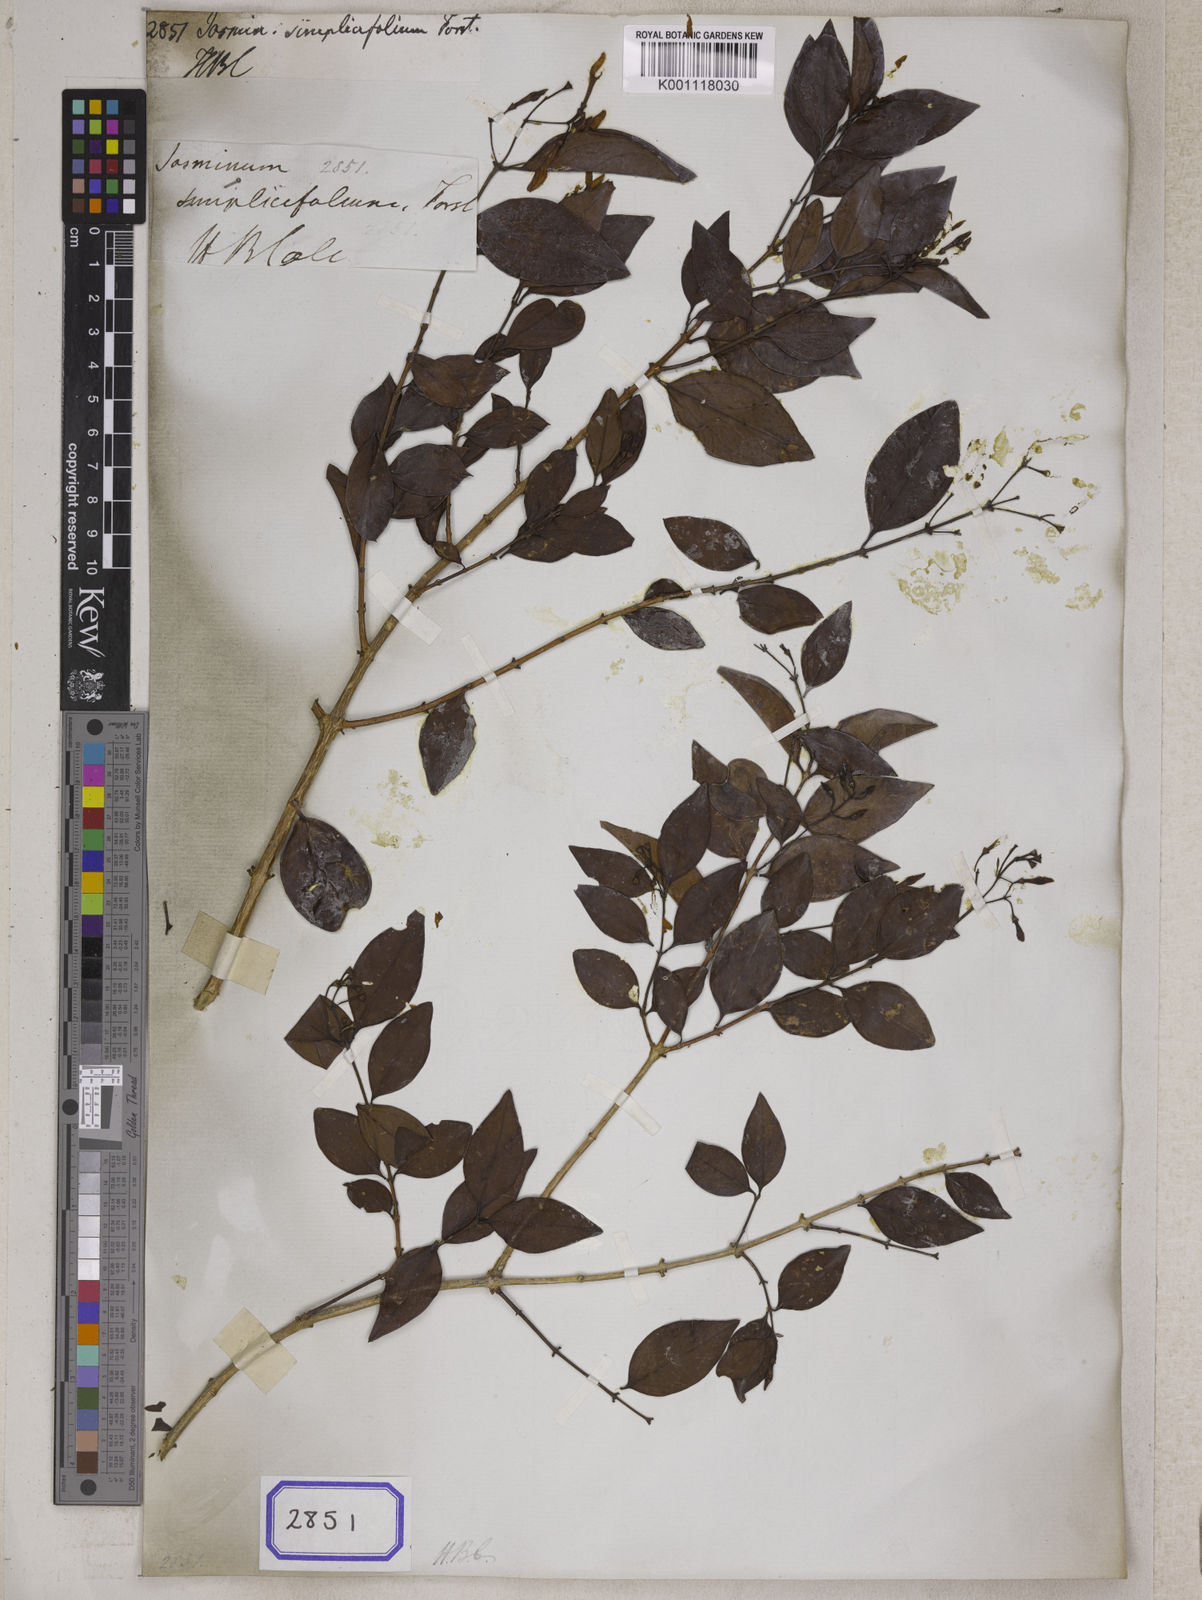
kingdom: Plantae
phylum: Tracheophyta
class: Magnoliopsida
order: Lamiales
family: Oleaceae
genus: Jasminum
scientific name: Jasminum simplicifolium
